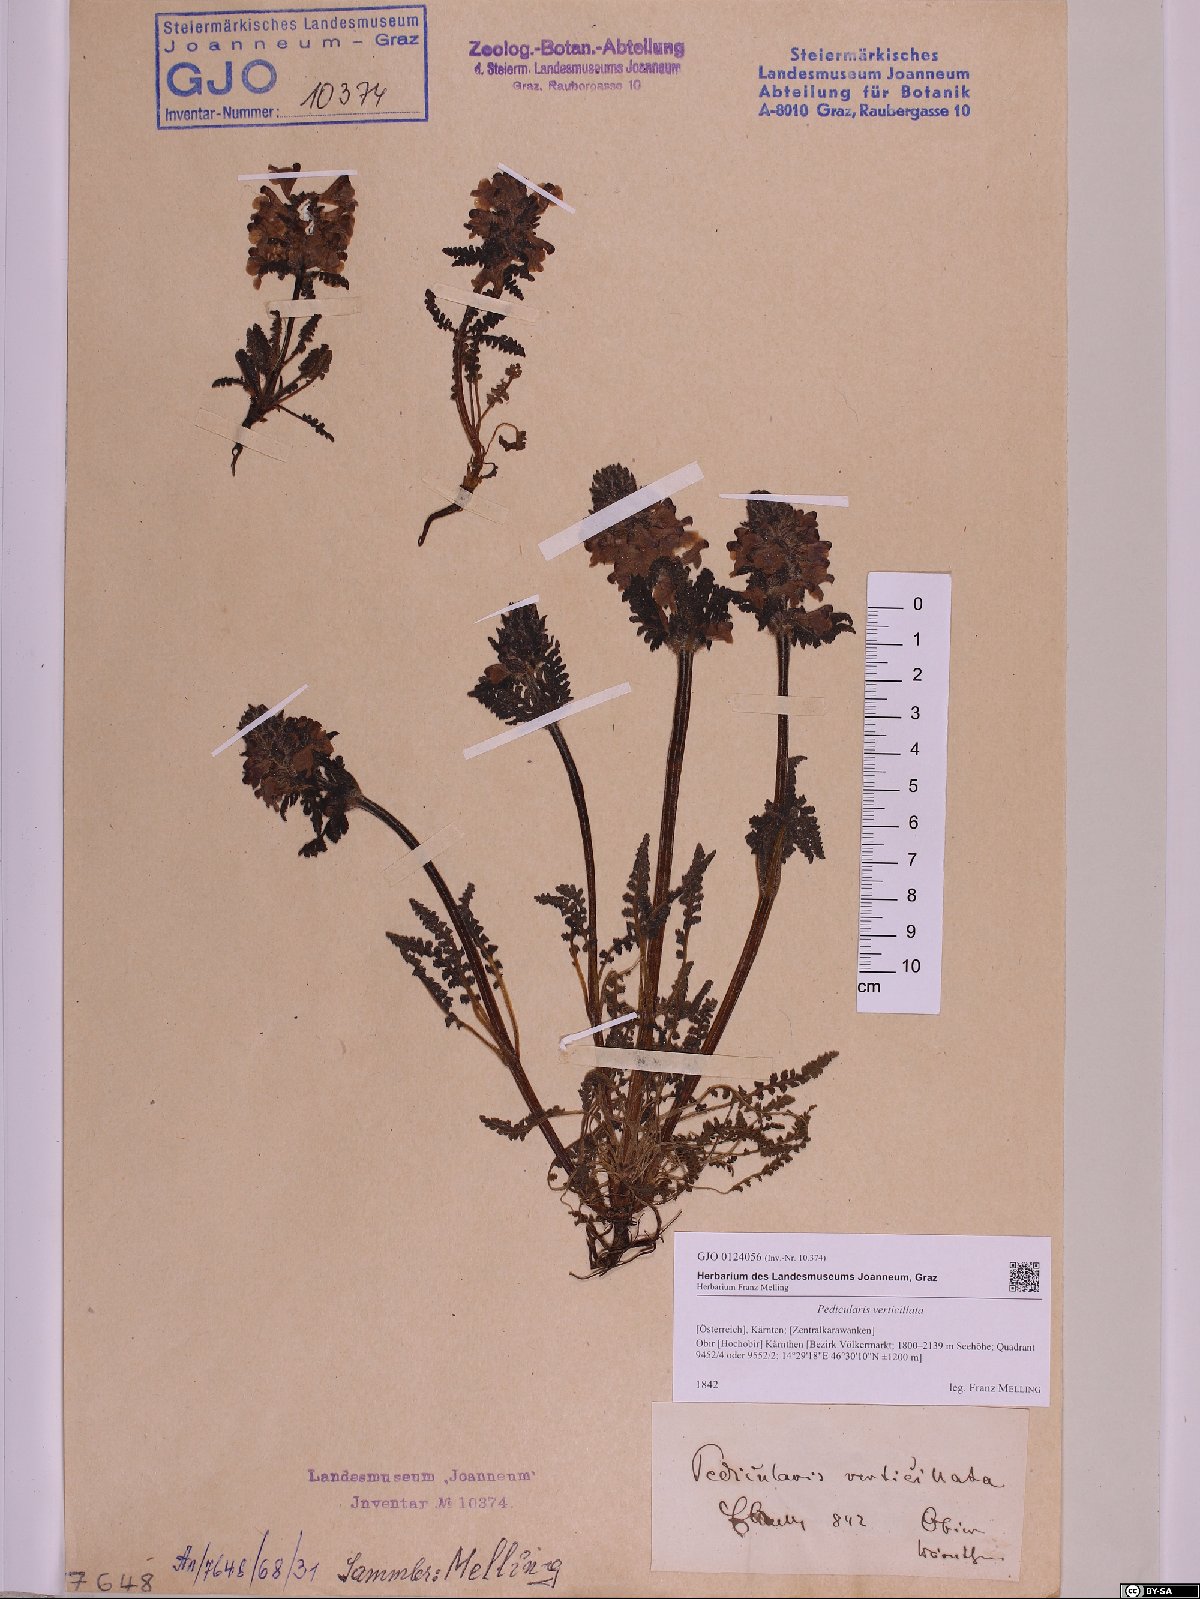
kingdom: Plantae
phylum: Tracheophyta
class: Magnoliopsida
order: Lamiales
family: Orobanchaceae
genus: Pedicularis
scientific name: Pedicularis verticillata
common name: Whorled lousewort
